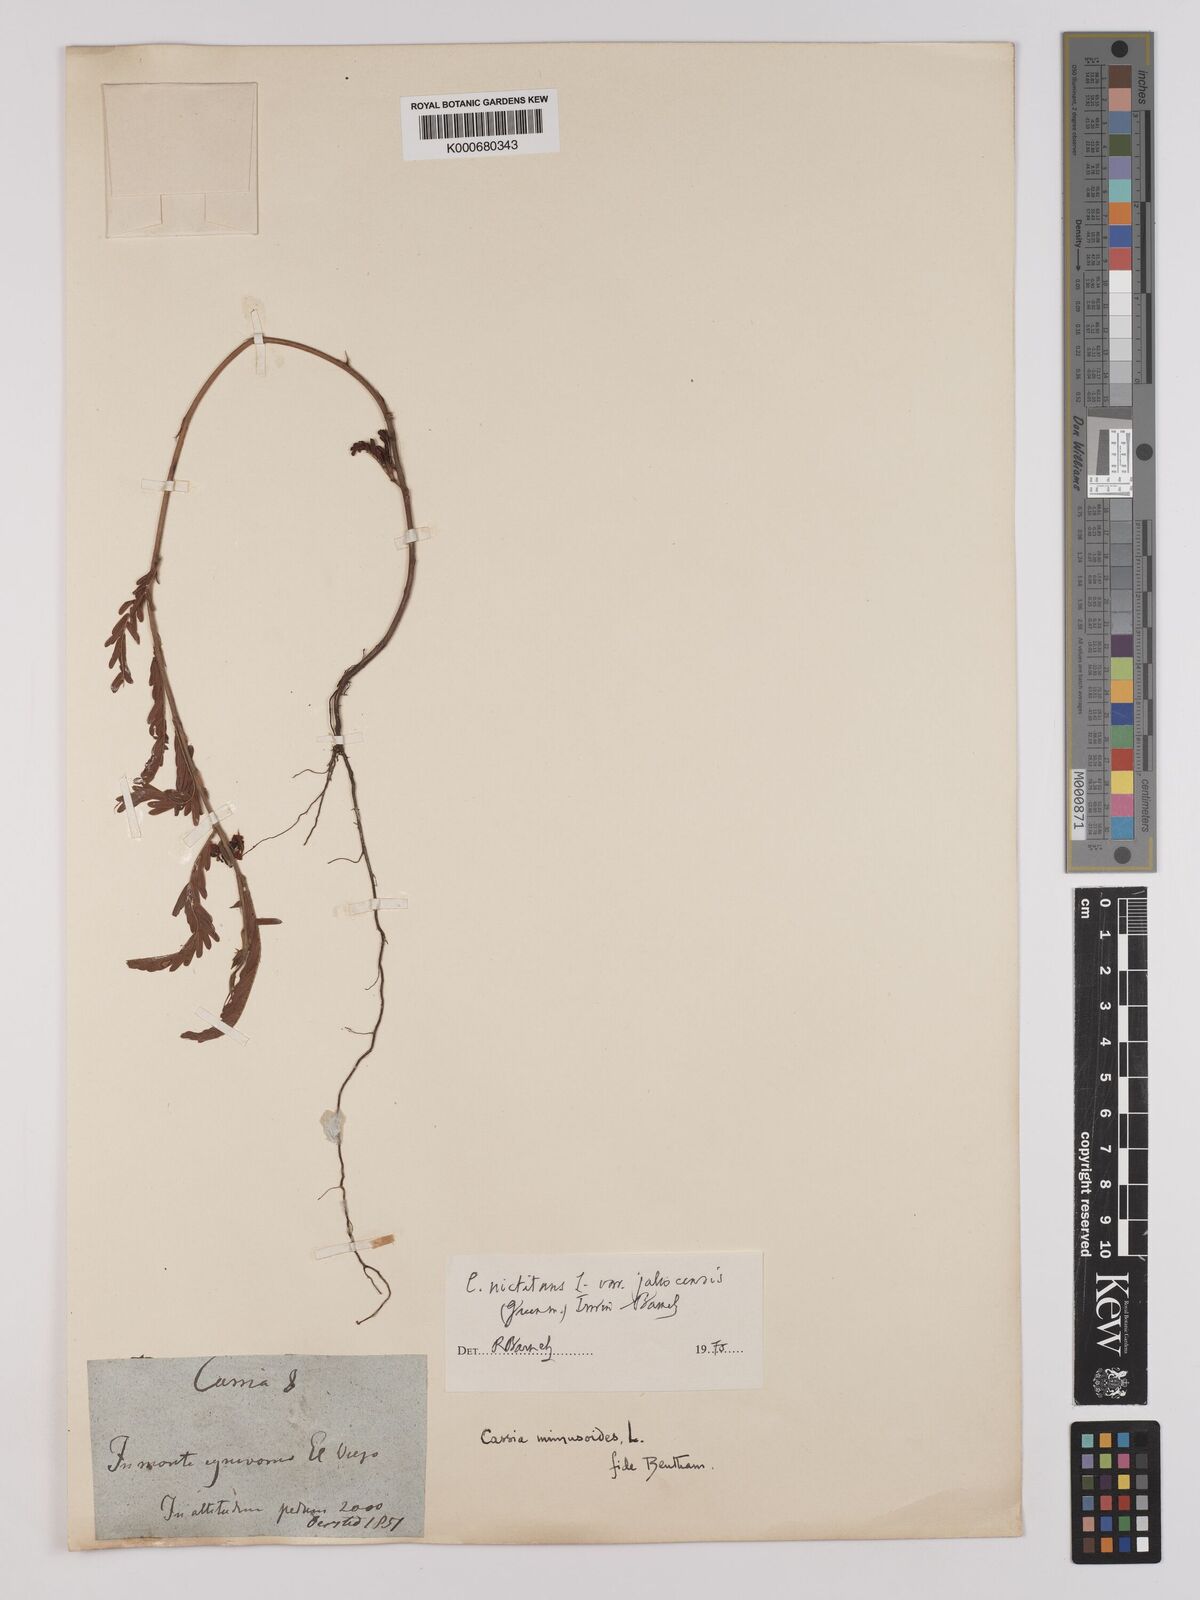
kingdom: Plantae
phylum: Tracheophyta
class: Magnoliopsida
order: Fabales
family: Fabaceae
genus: Chamaecrista
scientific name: Chamaecrista nictitans
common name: Sensitive cassia
